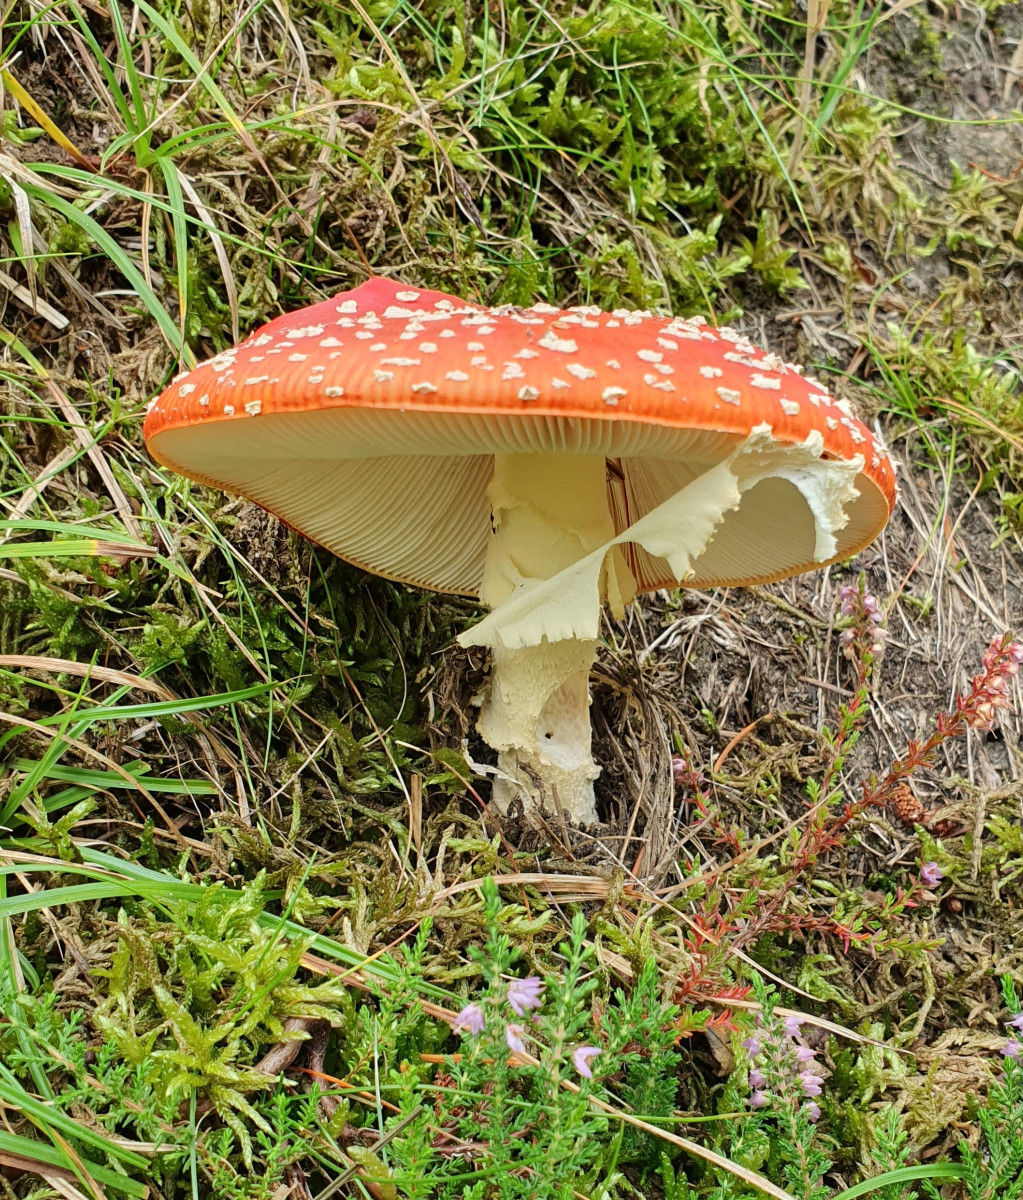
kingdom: Fungi
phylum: Basidiomycota
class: Agaricomycetes
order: Agaricales
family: Amanitaceae
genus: Amanita
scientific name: Amanita muscaria
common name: rød fluesvamp
